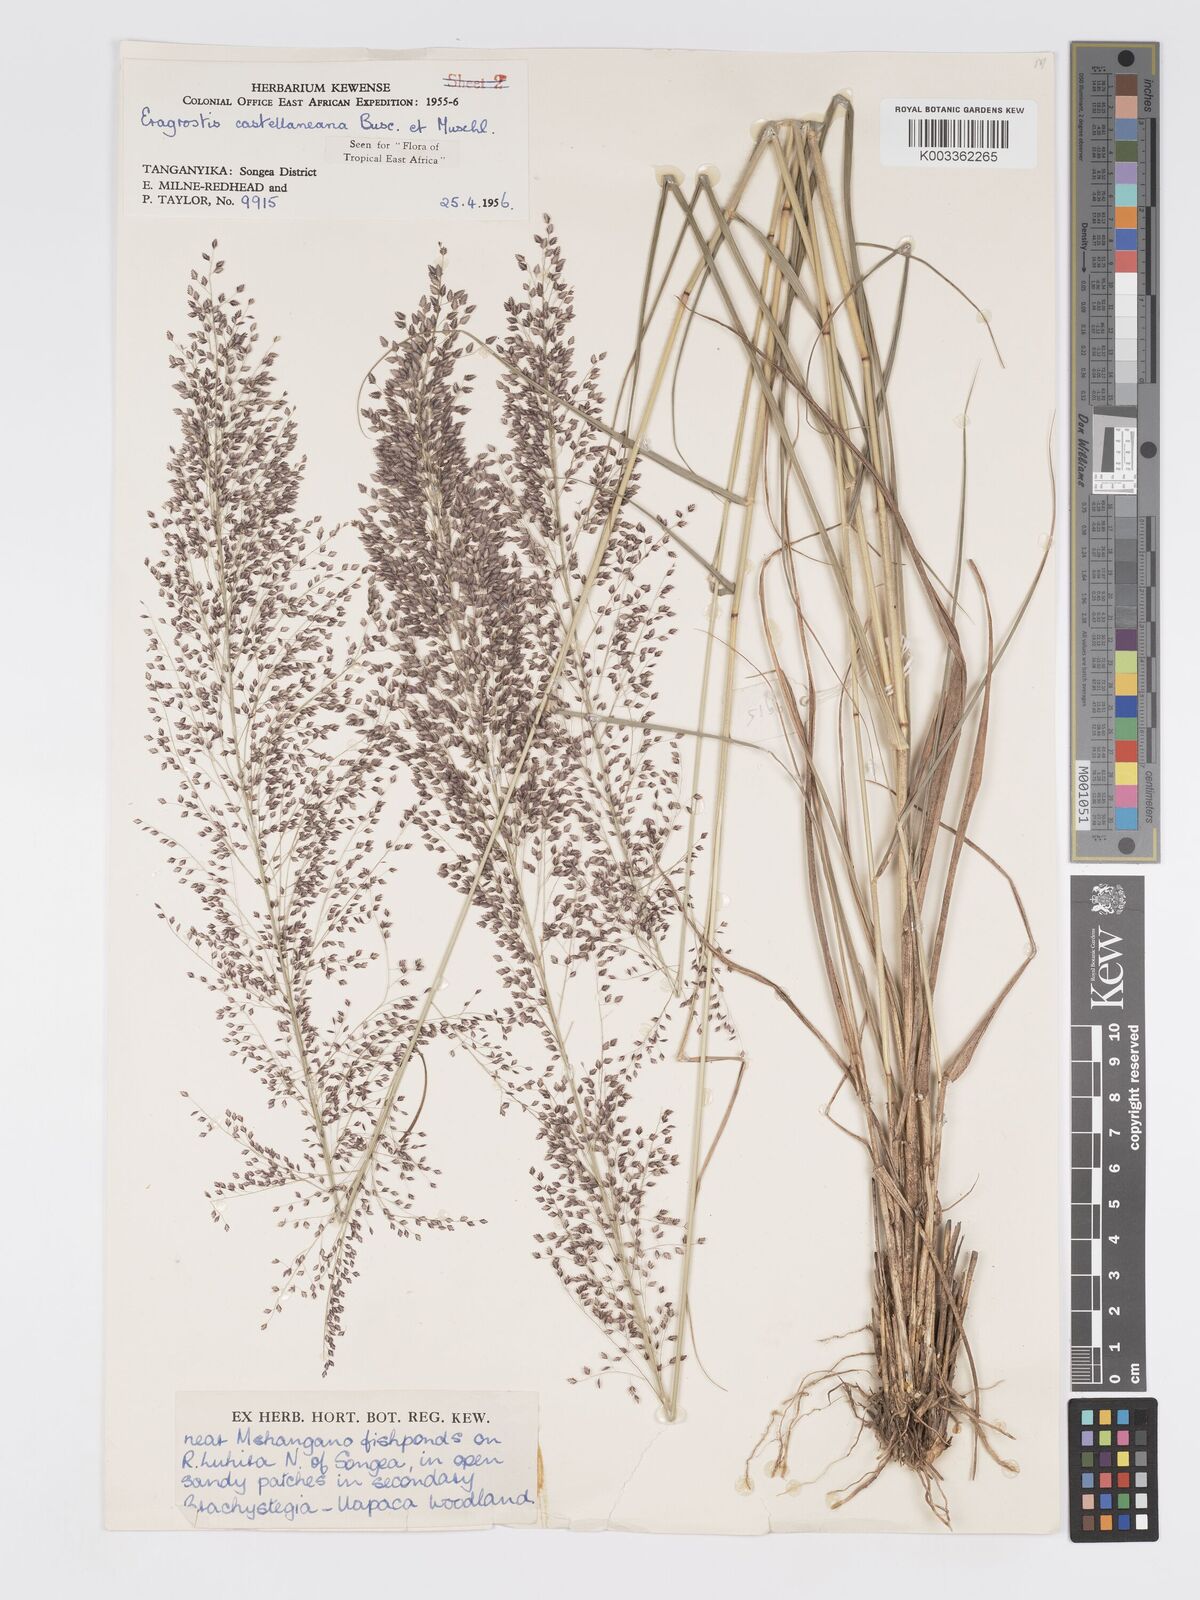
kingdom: Plantae
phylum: Tracheophyta
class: Liliopsida
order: Poales
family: Poaceae
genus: Eragrostis
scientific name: Eragrostis castellaneana
